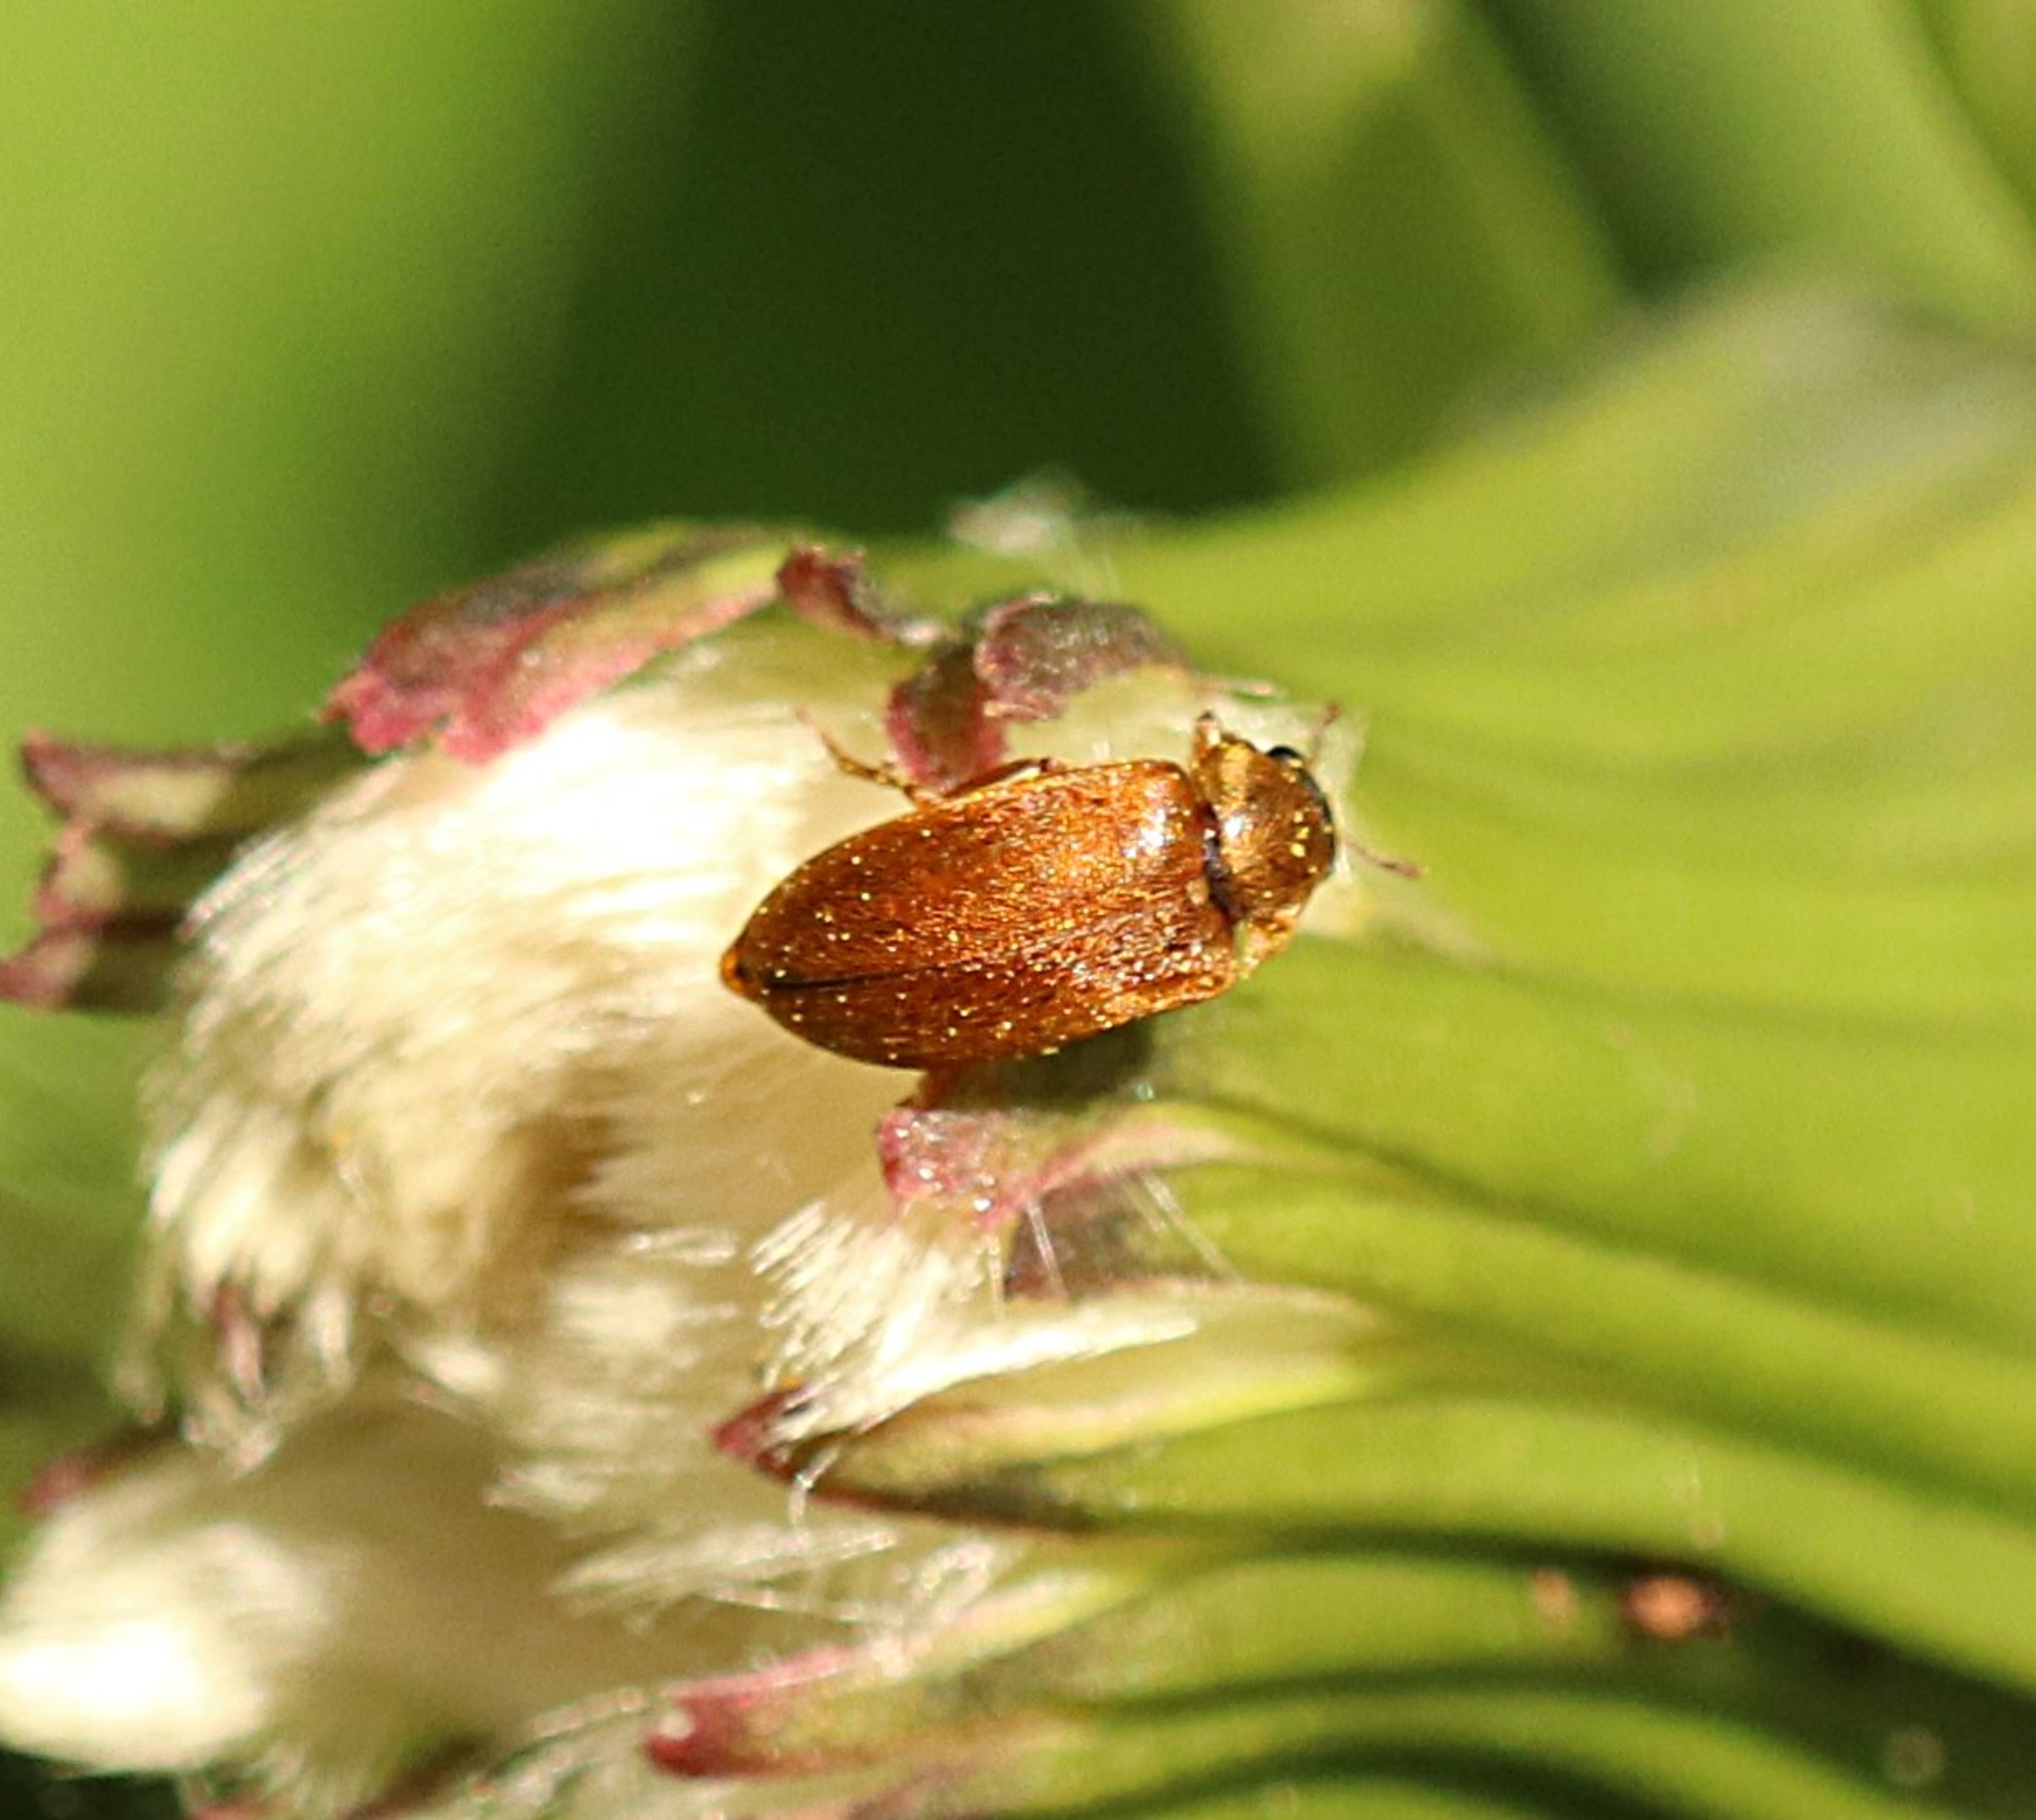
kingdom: Animalia
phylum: Arthropoda
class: Insecta
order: Coleoptera
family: Byturidae
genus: Byturus
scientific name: Byturus tomentosus
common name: Hindbærbille
